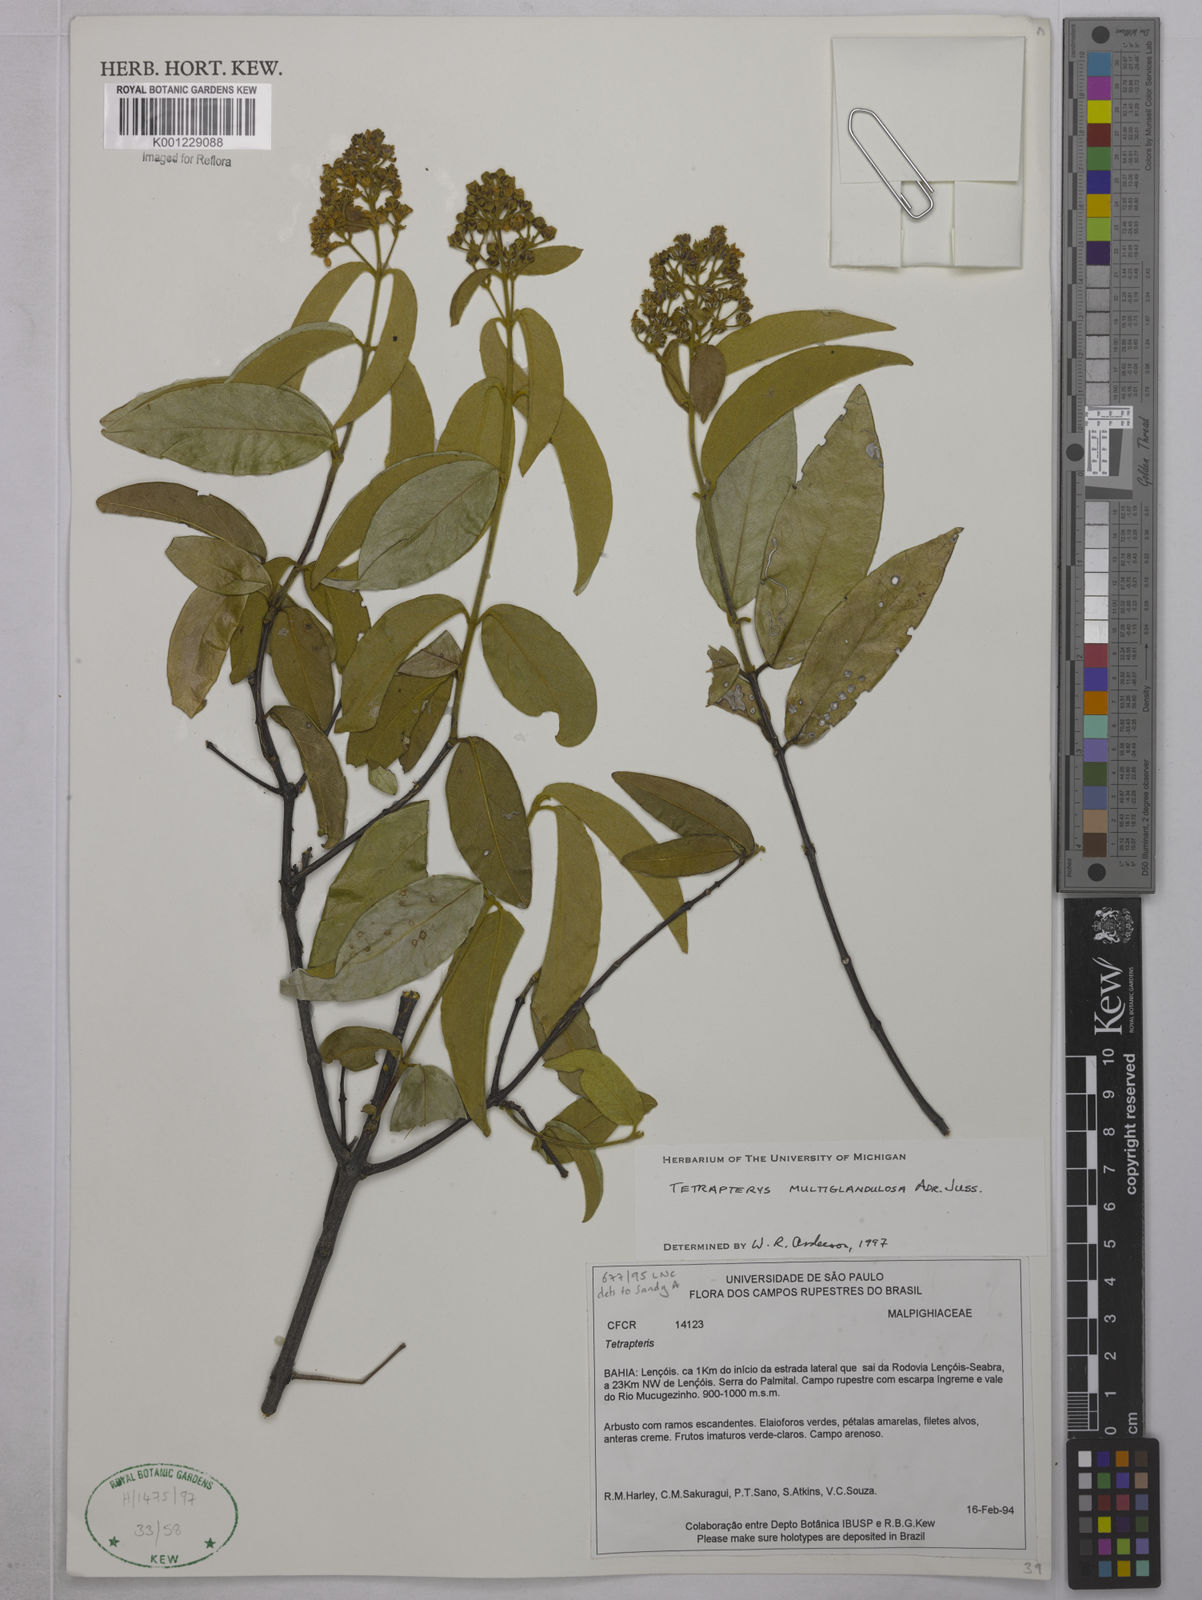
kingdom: Plantae
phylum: Tracheophyta
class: Magnoliopsida
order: Malpighiales
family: Malpighiaceae
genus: Niedenzuella
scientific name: Niedenzuella multiglandulosa
